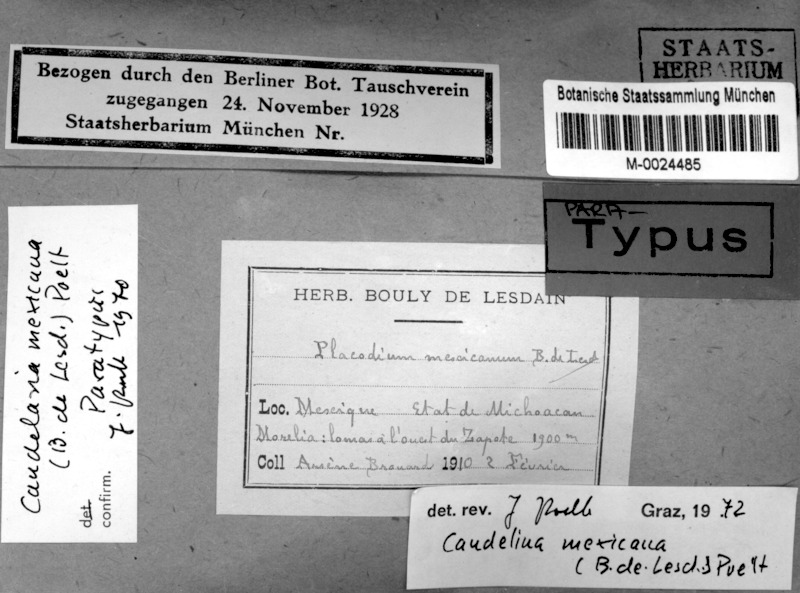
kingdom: Fungi
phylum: Ascomycota
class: Candelariomycetes
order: Candelariales
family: Candelariaceae
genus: Candelina
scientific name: Candelina mexicana
